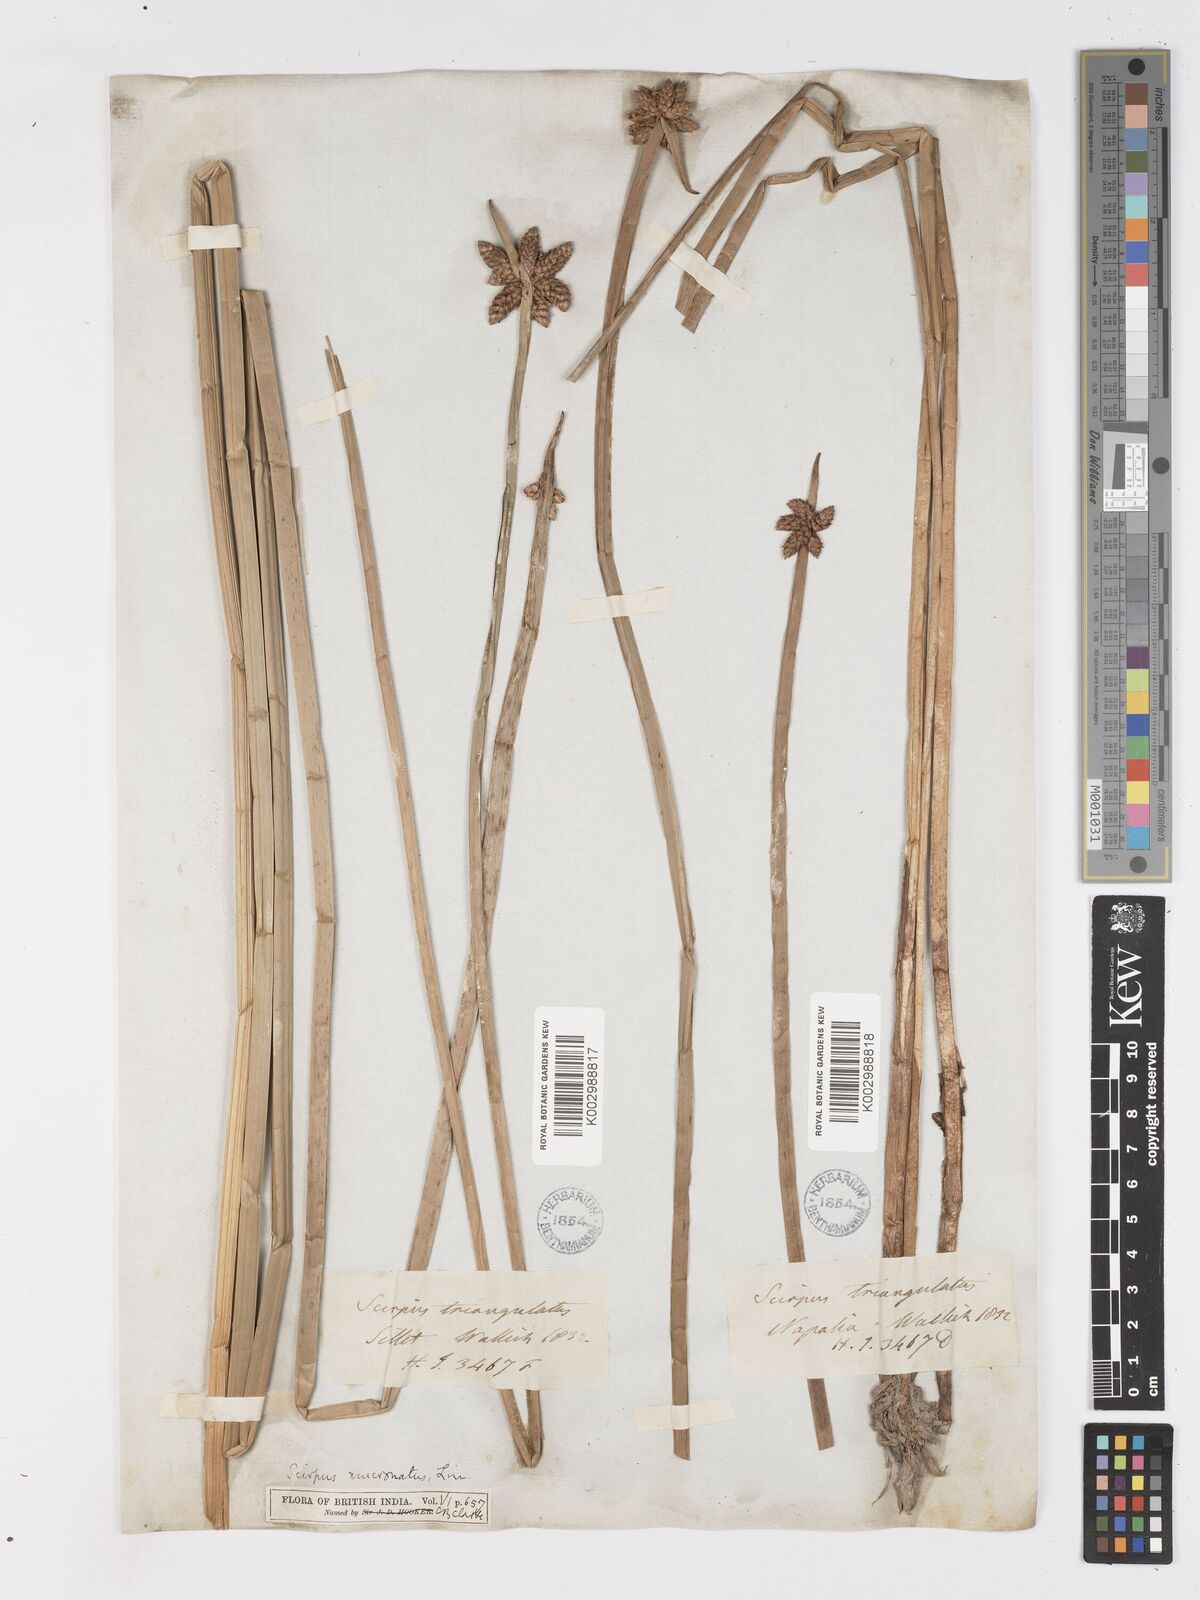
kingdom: Plantae
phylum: Tracheophyta
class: Liliopsida
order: Poales
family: Cyperaceae
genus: Schoenoplectiella
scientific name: Schoenoplectiella mucronata
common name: Bog bulrush
